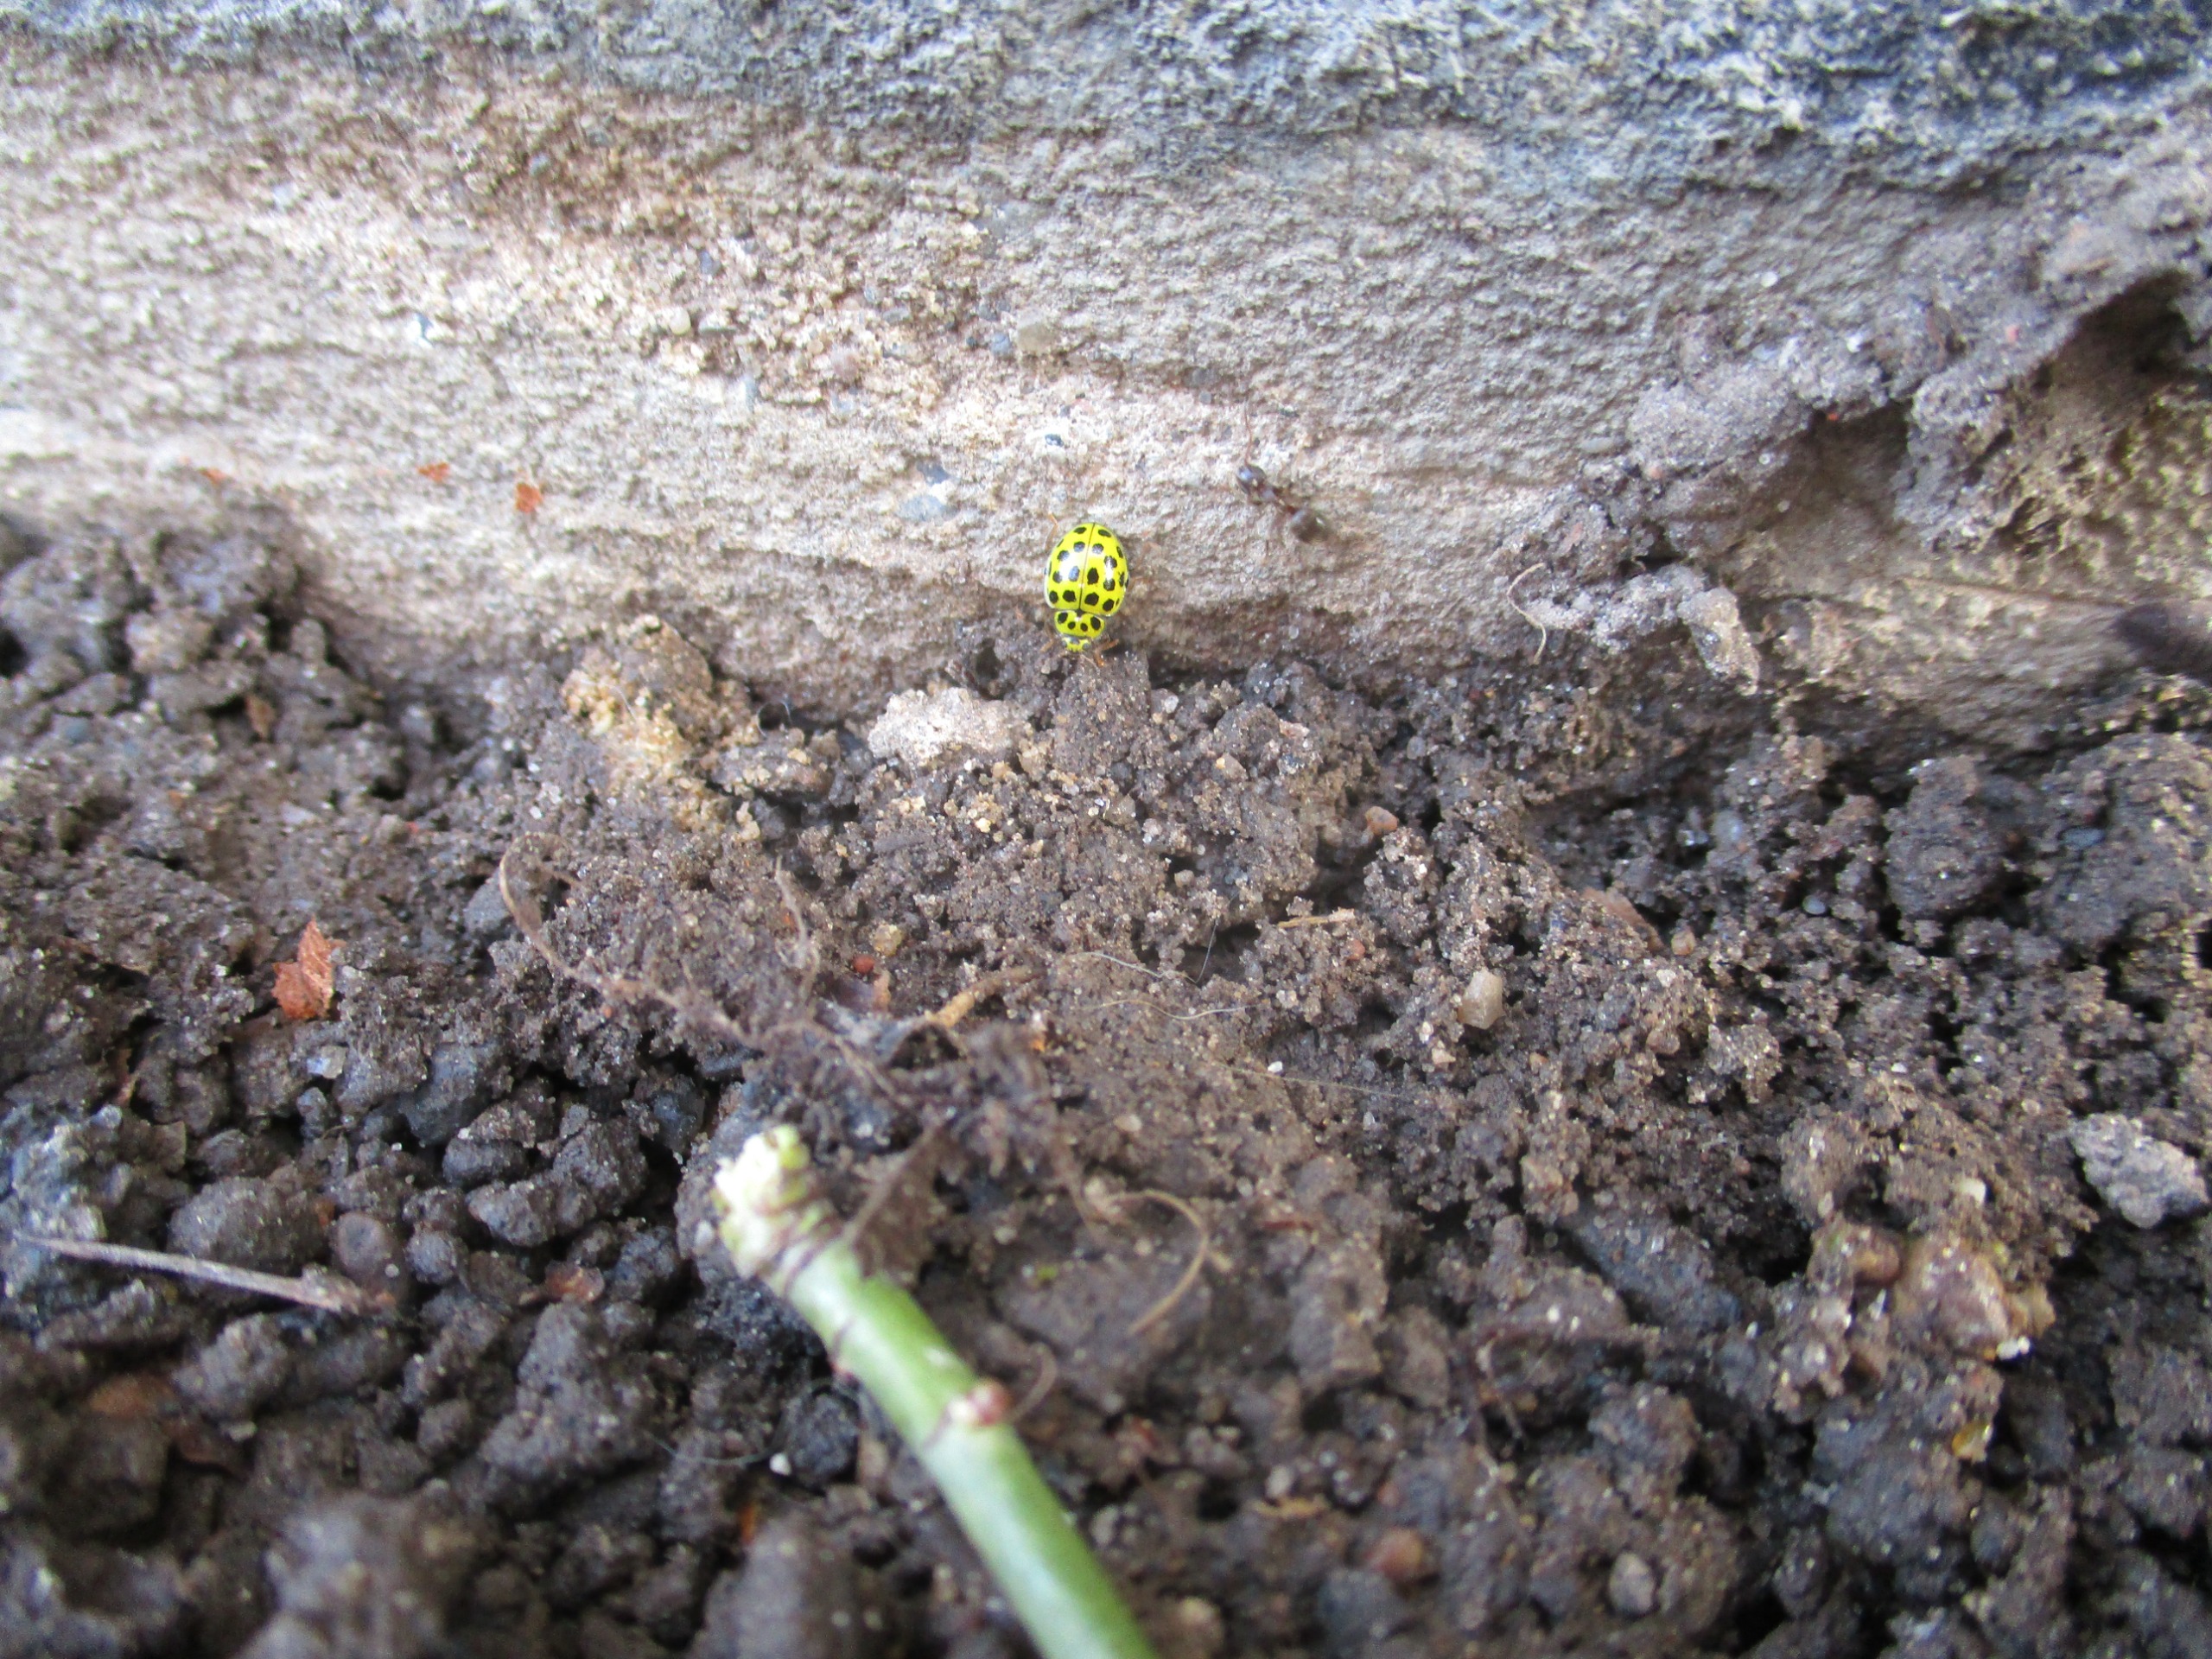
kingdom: Animalia
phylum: Arthropoda
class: Insecta
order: Coleoptera
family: Coccinellidae
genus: Psyllobora
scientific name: Psyllobora vigintiduopunctata
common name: Toogtyveplettet mariehøne
